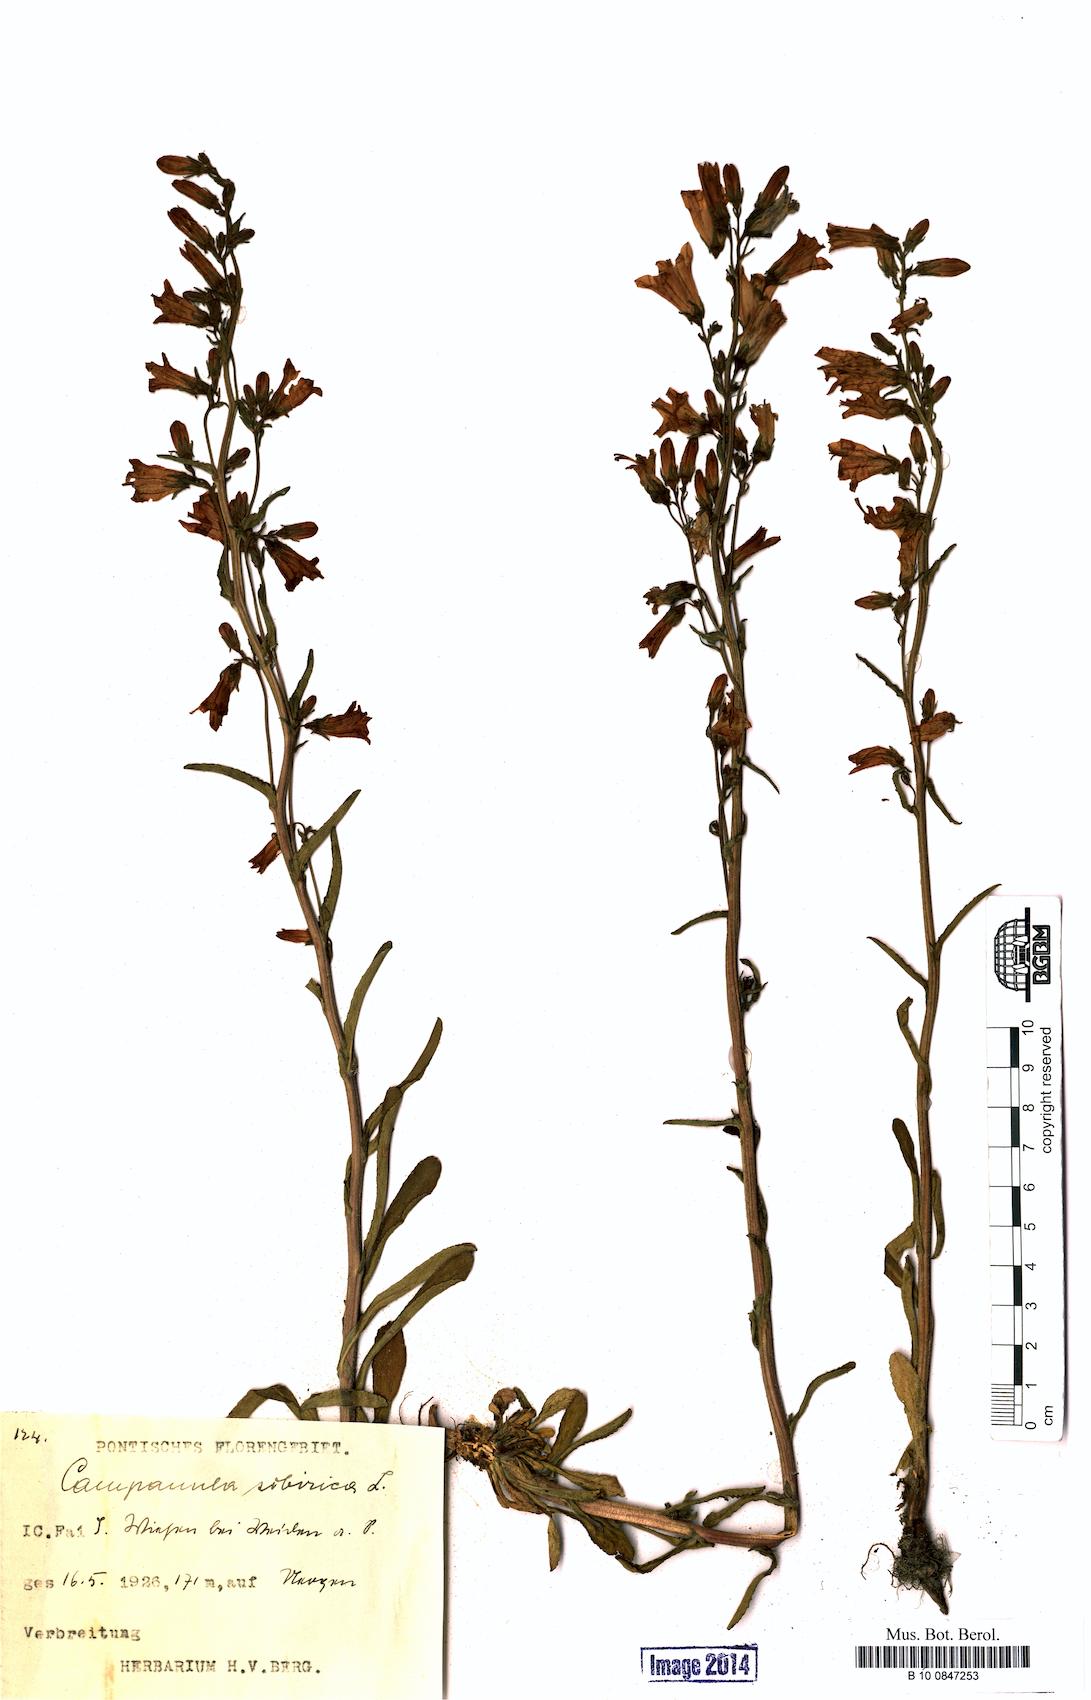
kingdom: Plantae
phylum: Tracheophyta
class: Magnoliopsida
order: Asterales
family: Campanulaceae
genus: Campanula
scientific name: Campanula sibirica
